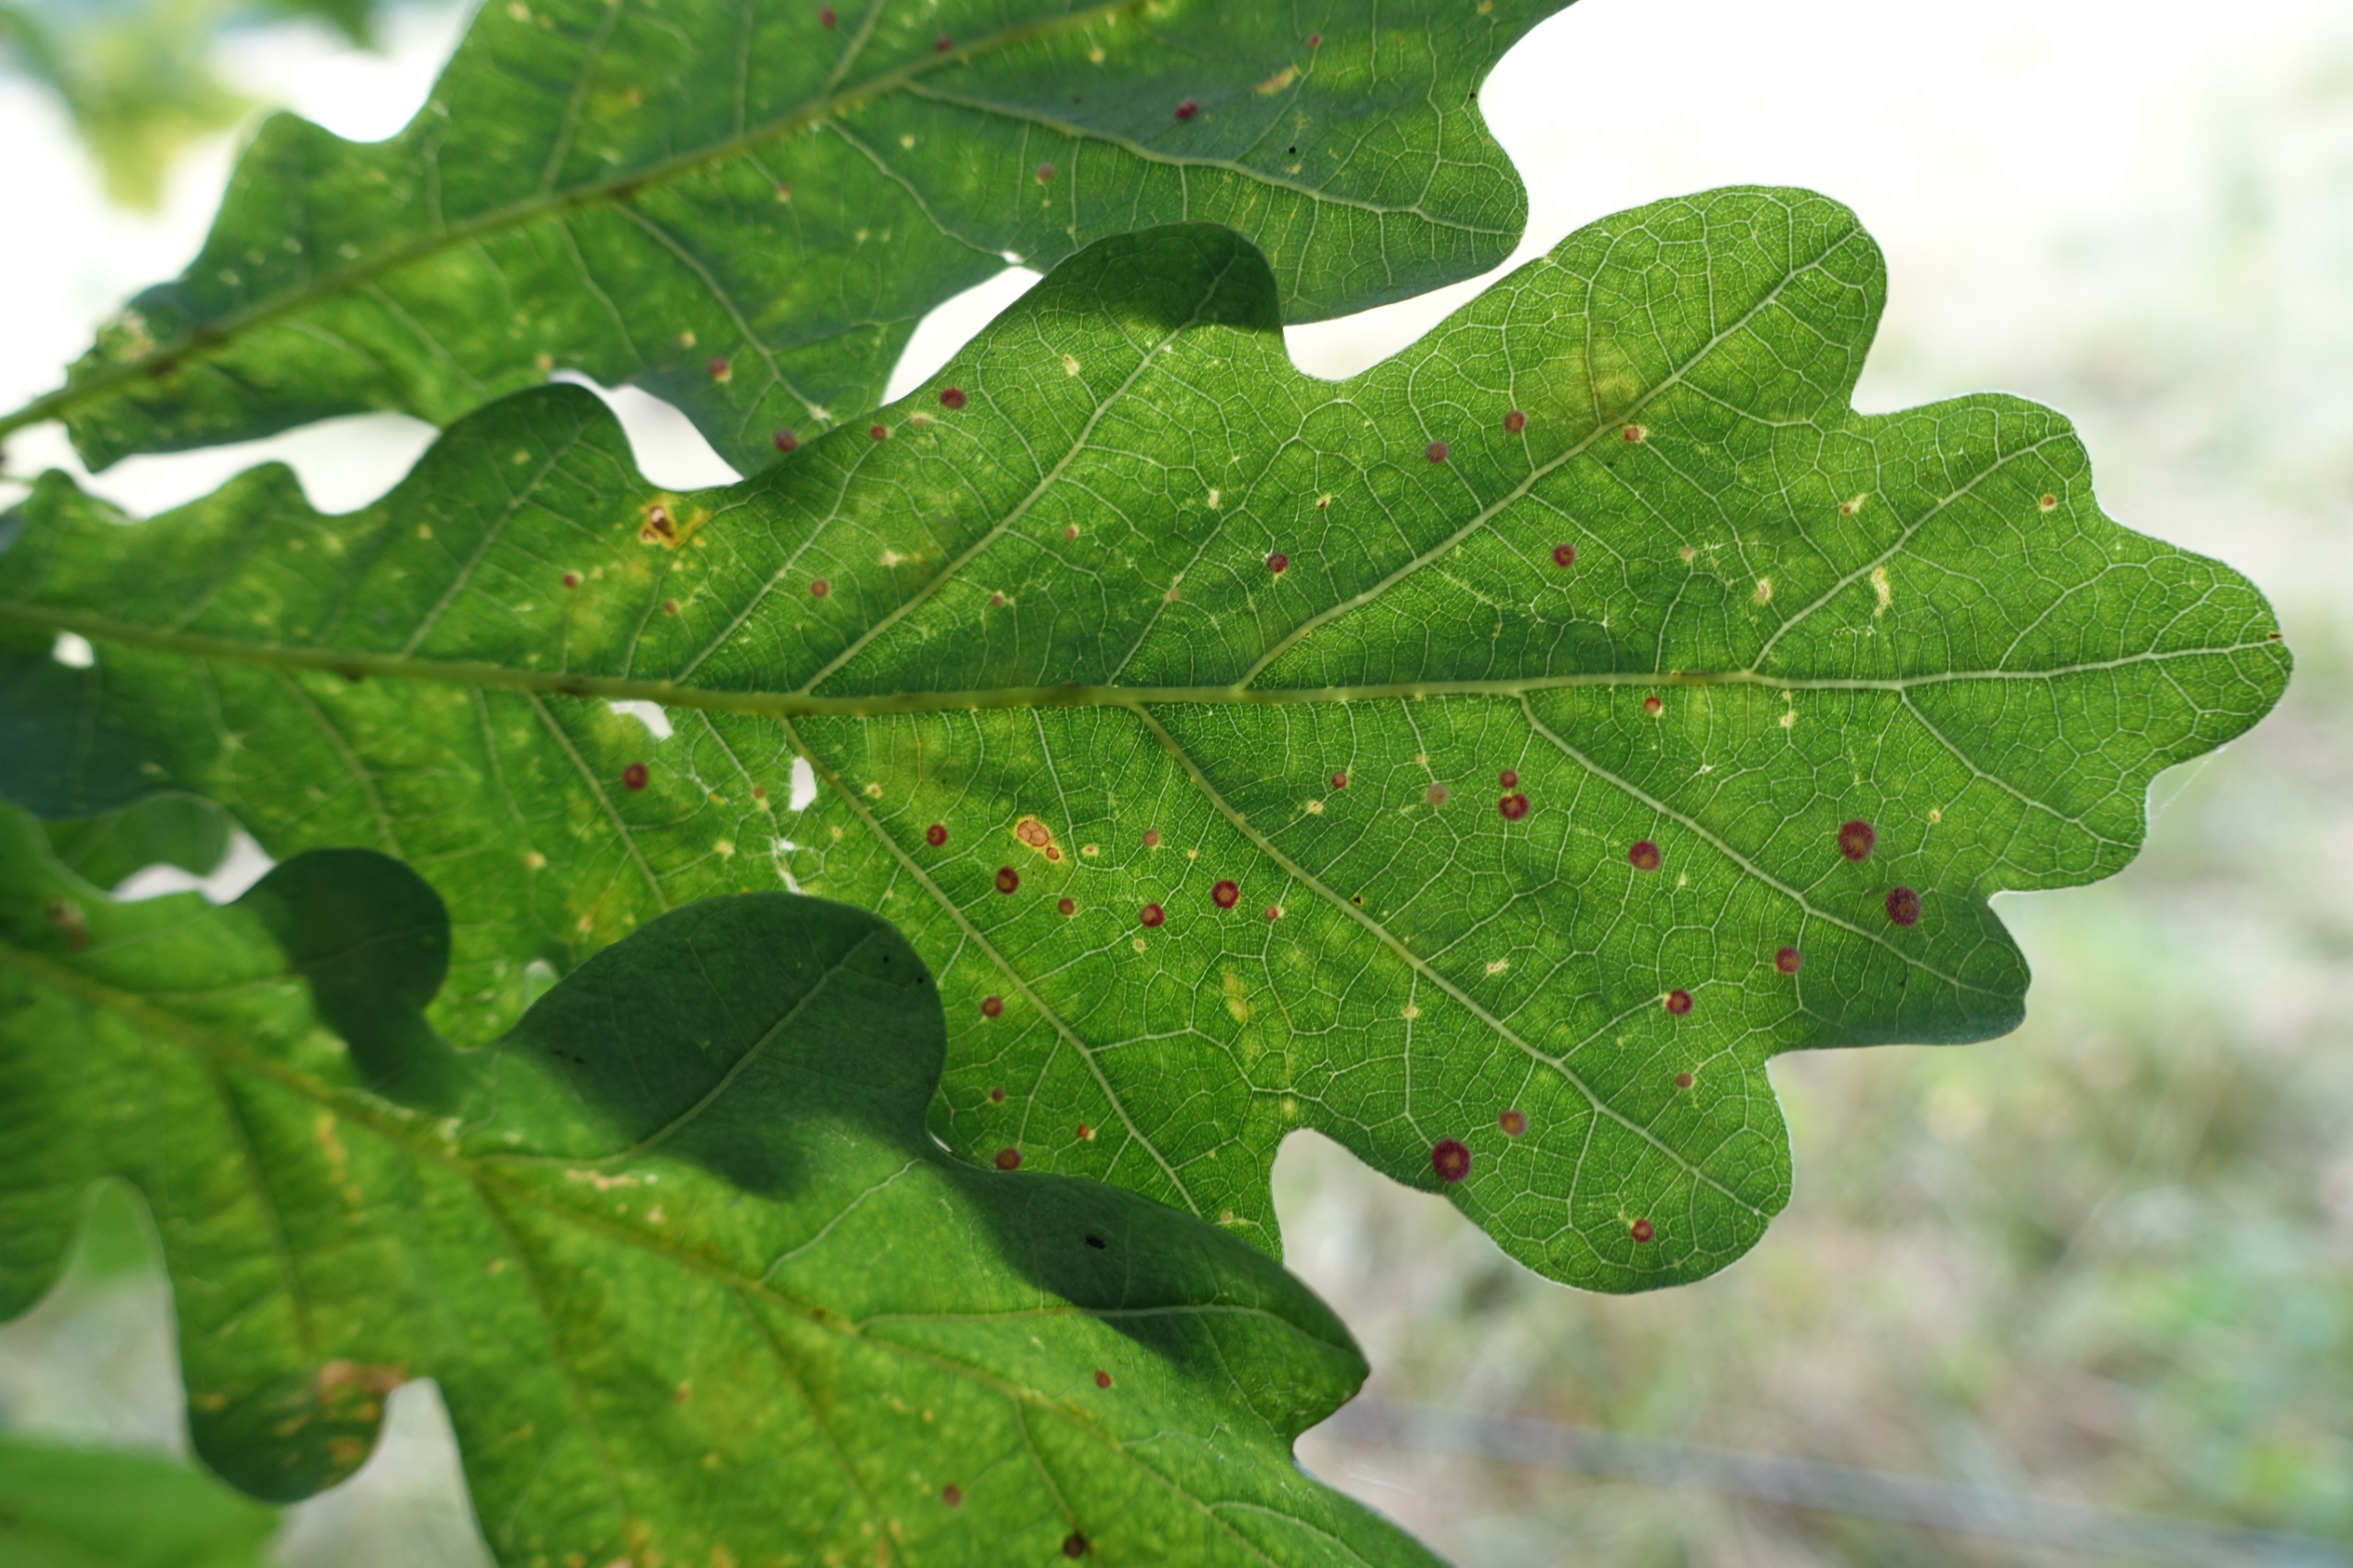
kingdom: Animalia
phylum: Arthropoda
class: Insecta
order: Hymenoptera
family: Cynipidae
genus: Neuroterus
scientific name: Neuroterus quercusbaccarum
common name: Linsegalhveps
